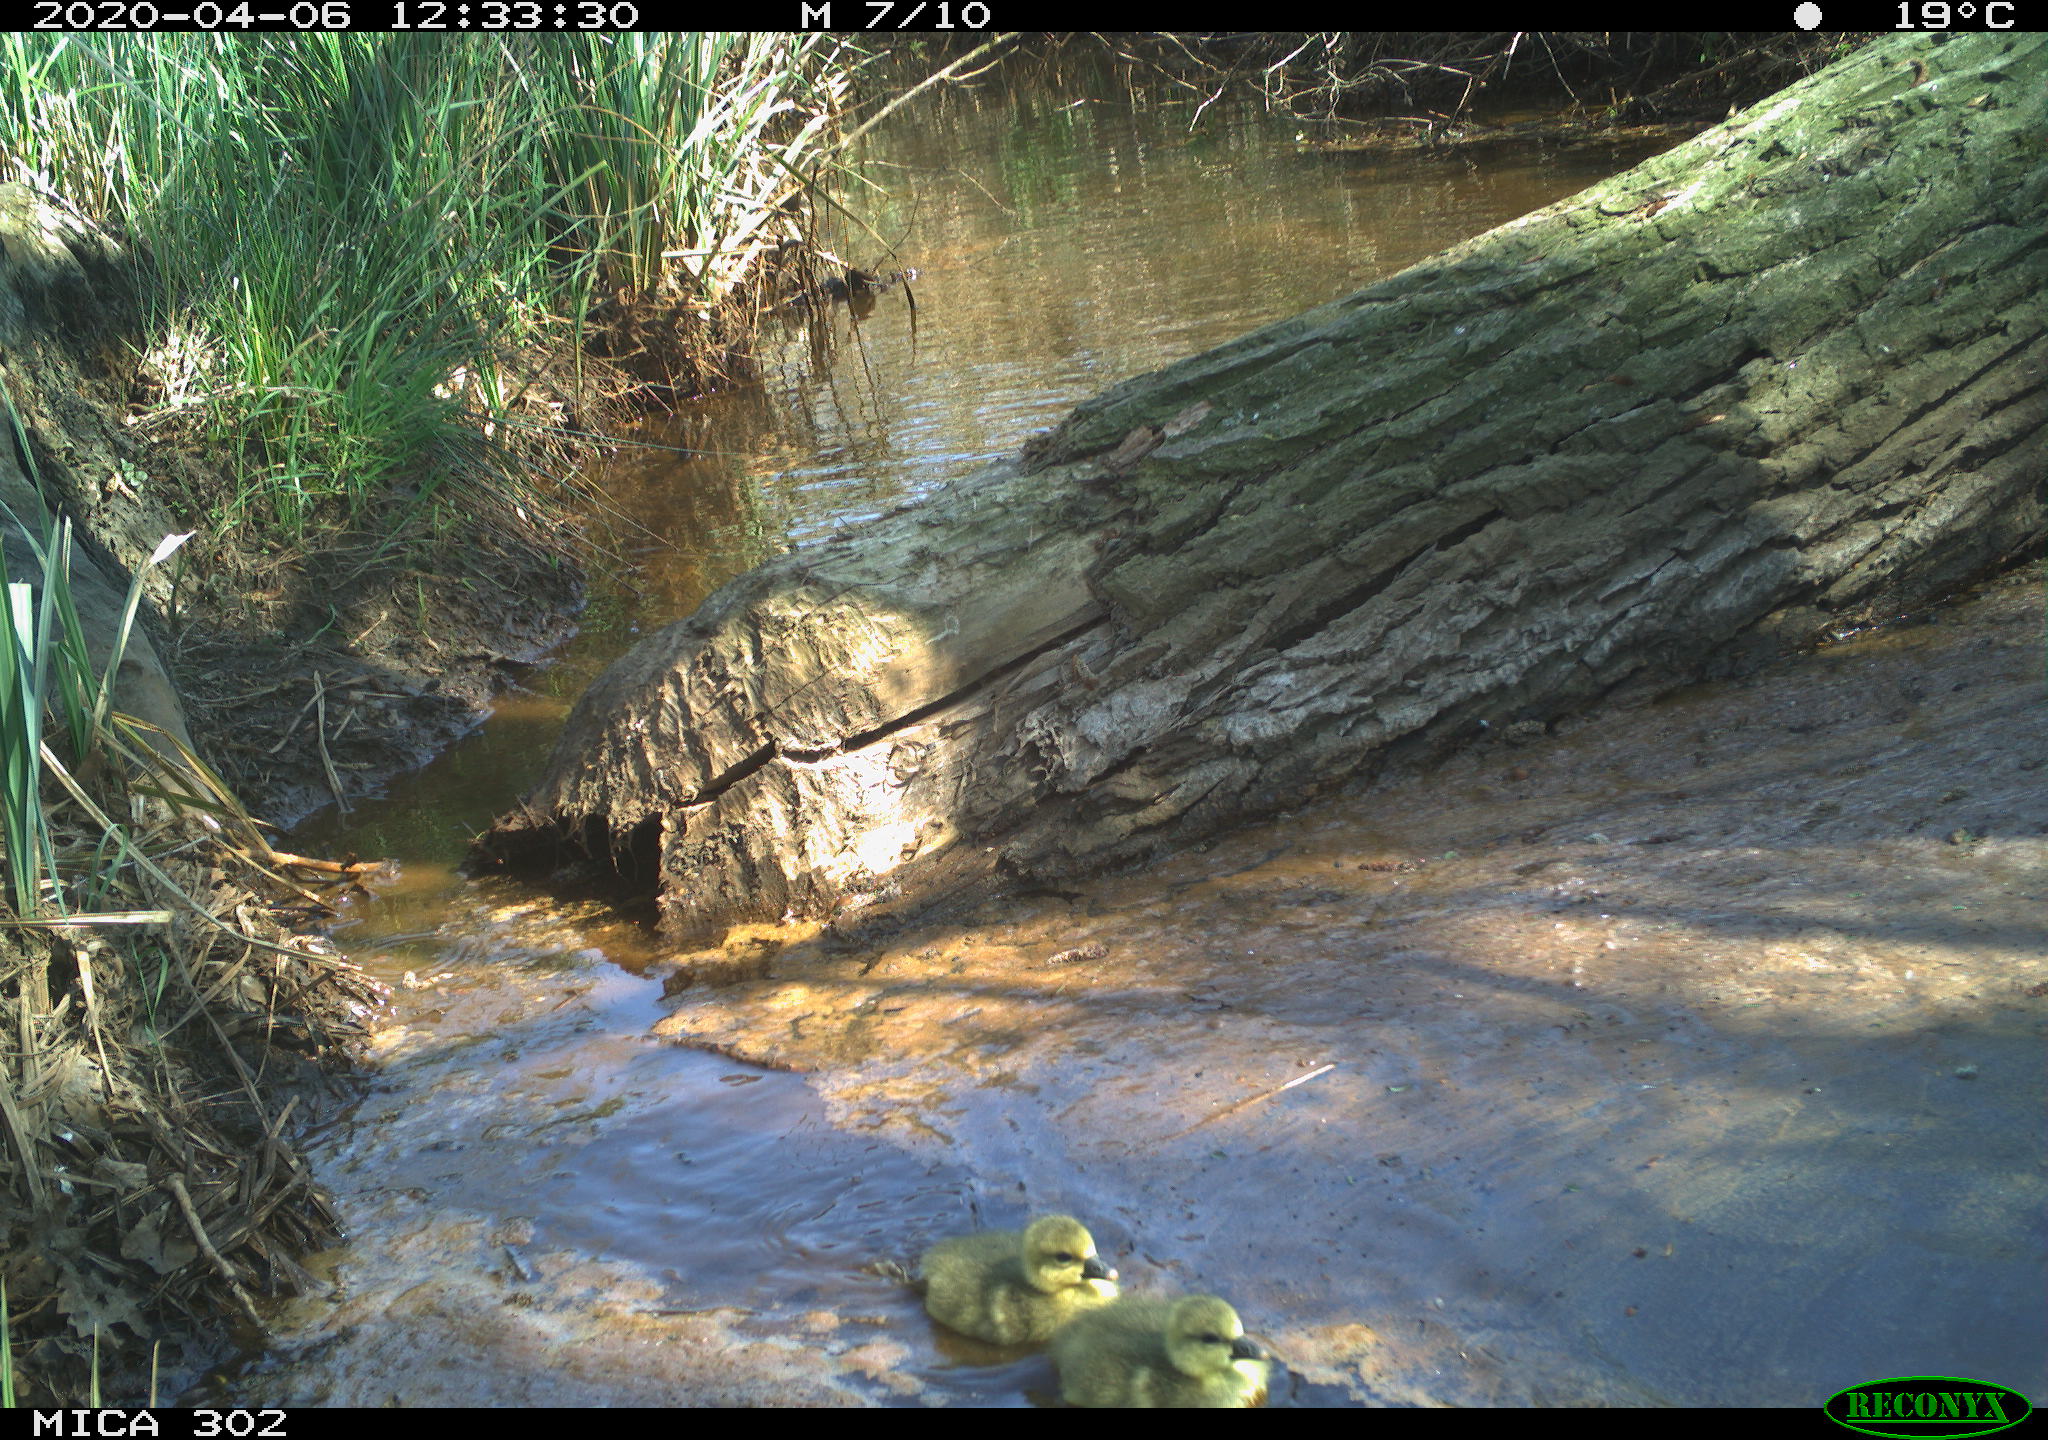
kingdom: Animalia
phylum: Chordata
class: Aves
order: Anseriformes
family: Anatidae
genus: Anser
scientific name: Anser anser
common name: Greylag goose
